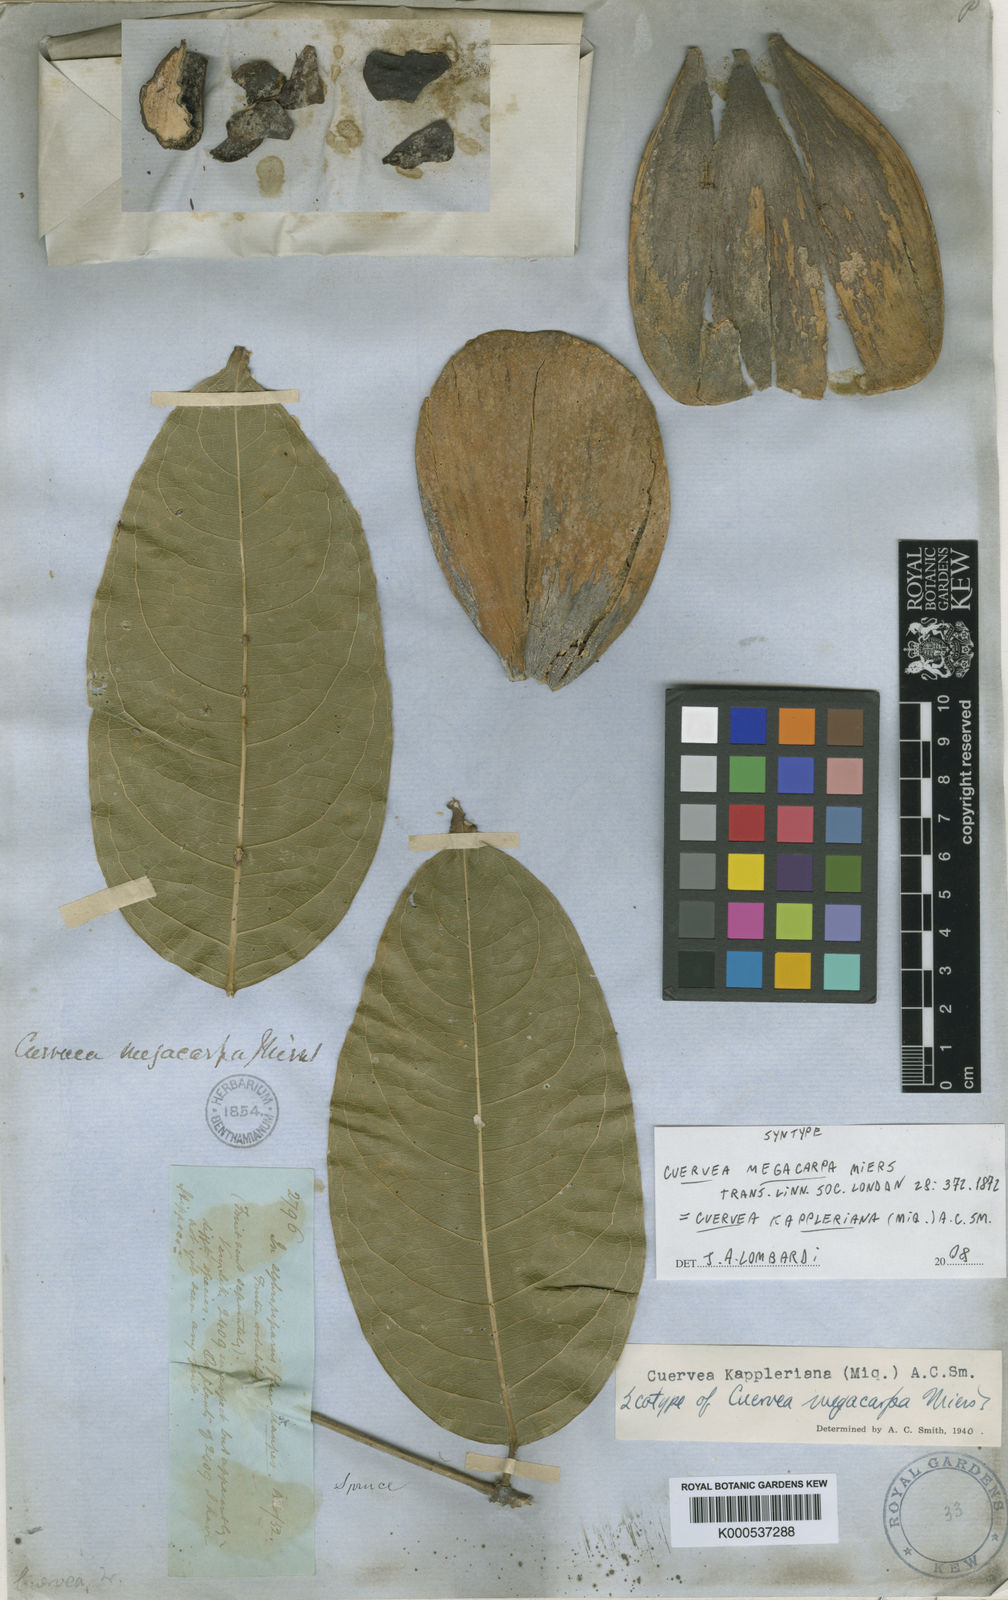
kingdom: Plantae
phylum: Tracheophyta
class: Magnoliopsida
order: Celastrales
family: Celastraceae
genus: Cuervea
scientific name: Cuervea kappleriana
